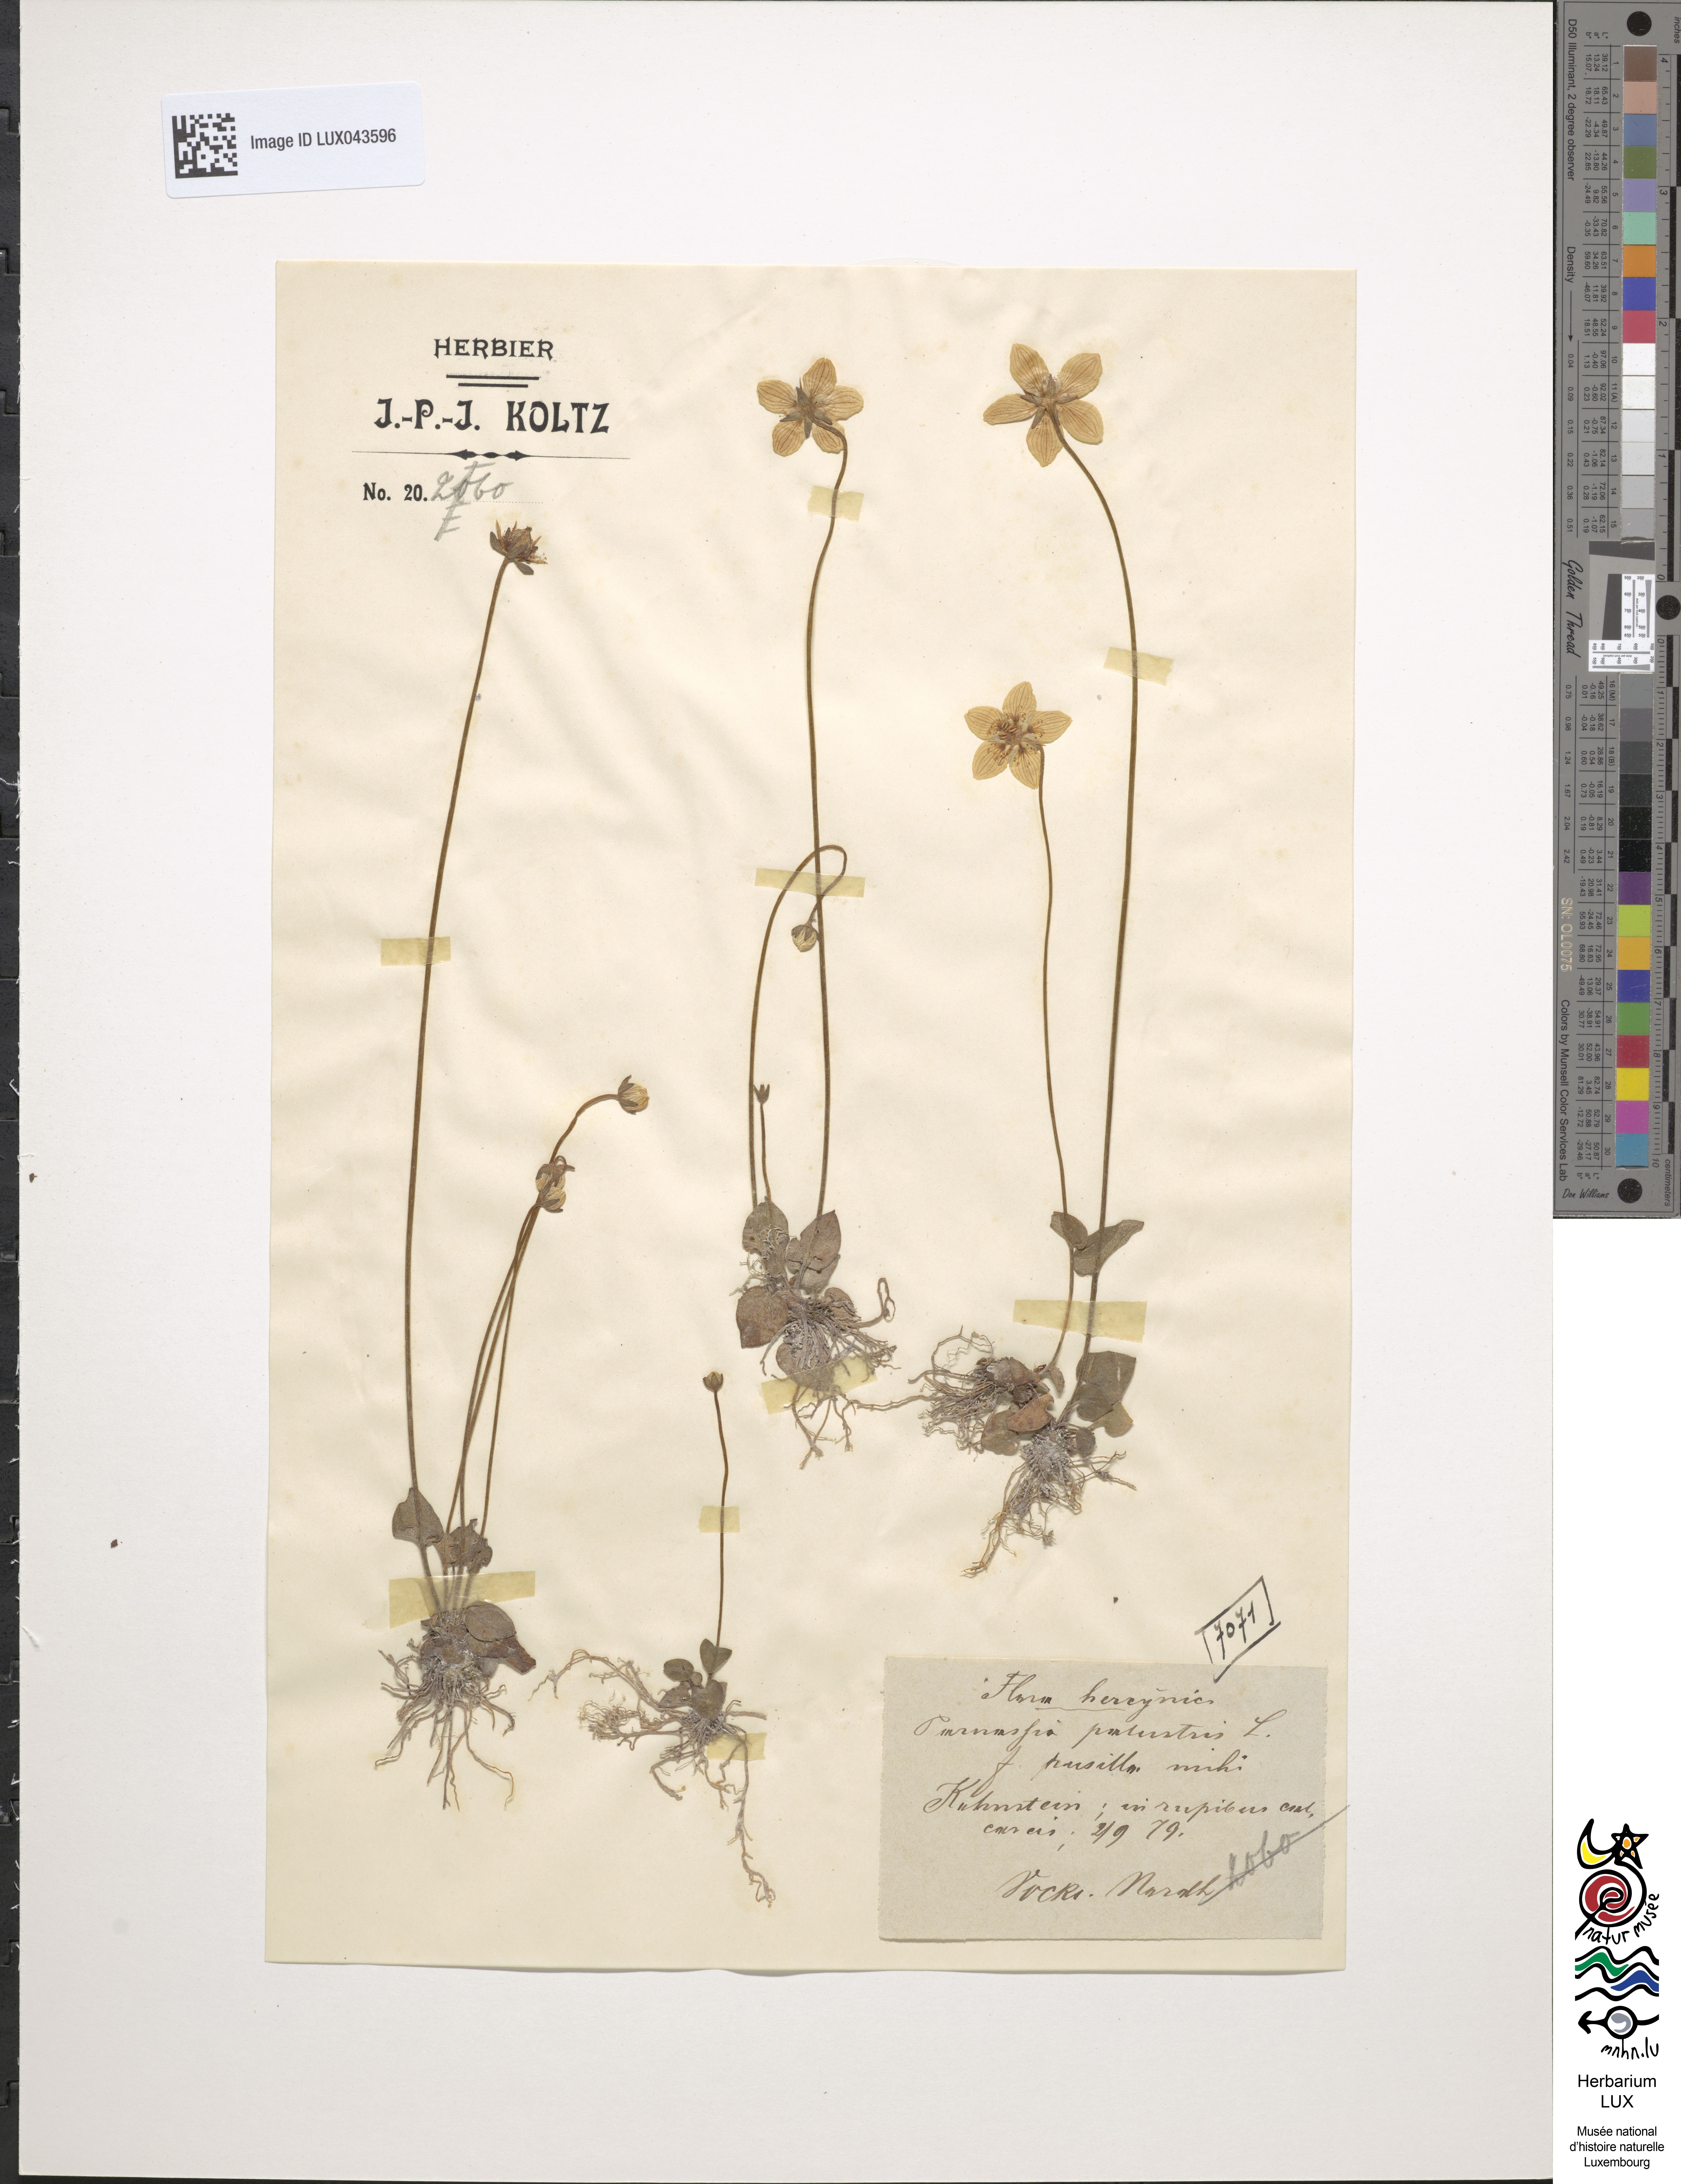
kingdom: Plantae
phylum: Tracheophyta
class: Magnoliopsida
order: Celastrales
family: Parnassiaceae
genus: Parnassia
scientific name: Parnassia palustris
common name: Grass-of-parnassus
